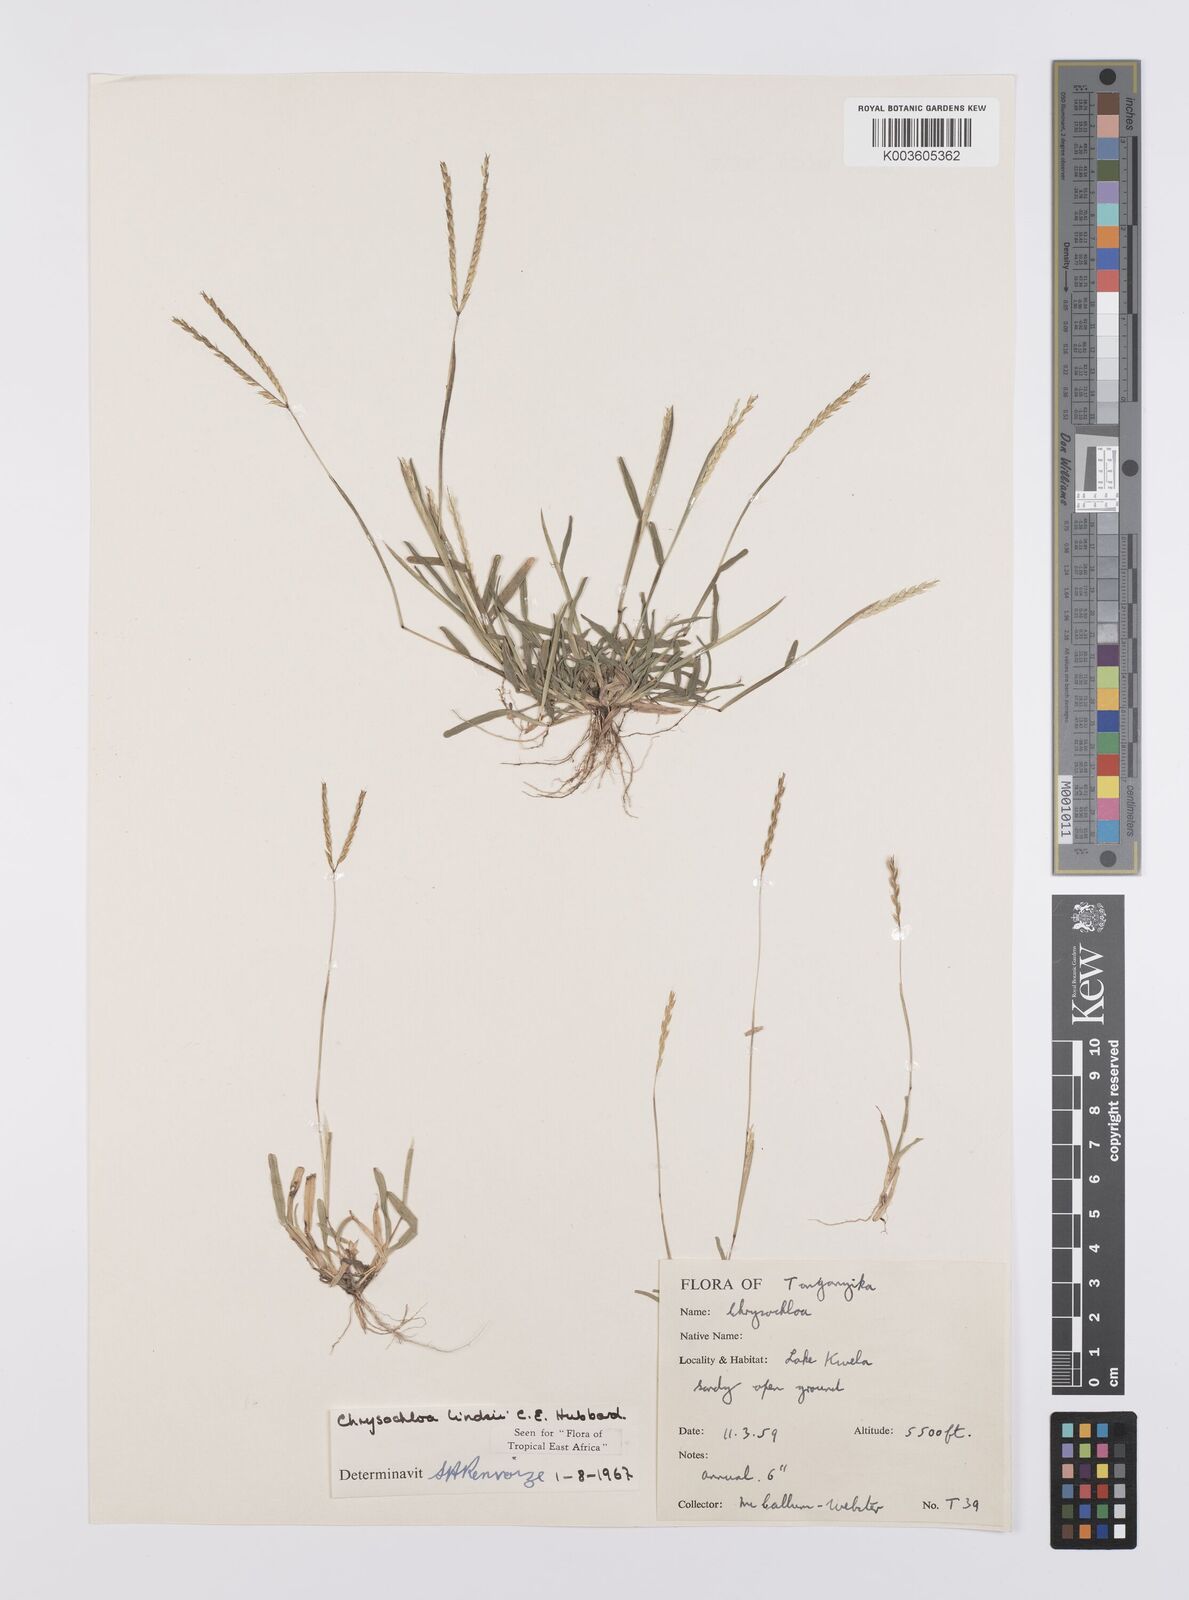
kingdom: Plantae
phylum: Tracheophyta
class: Liliopsida
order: Poales
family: Poaceae
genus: Chrysochloa
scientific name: Chrysochloa hindsii
